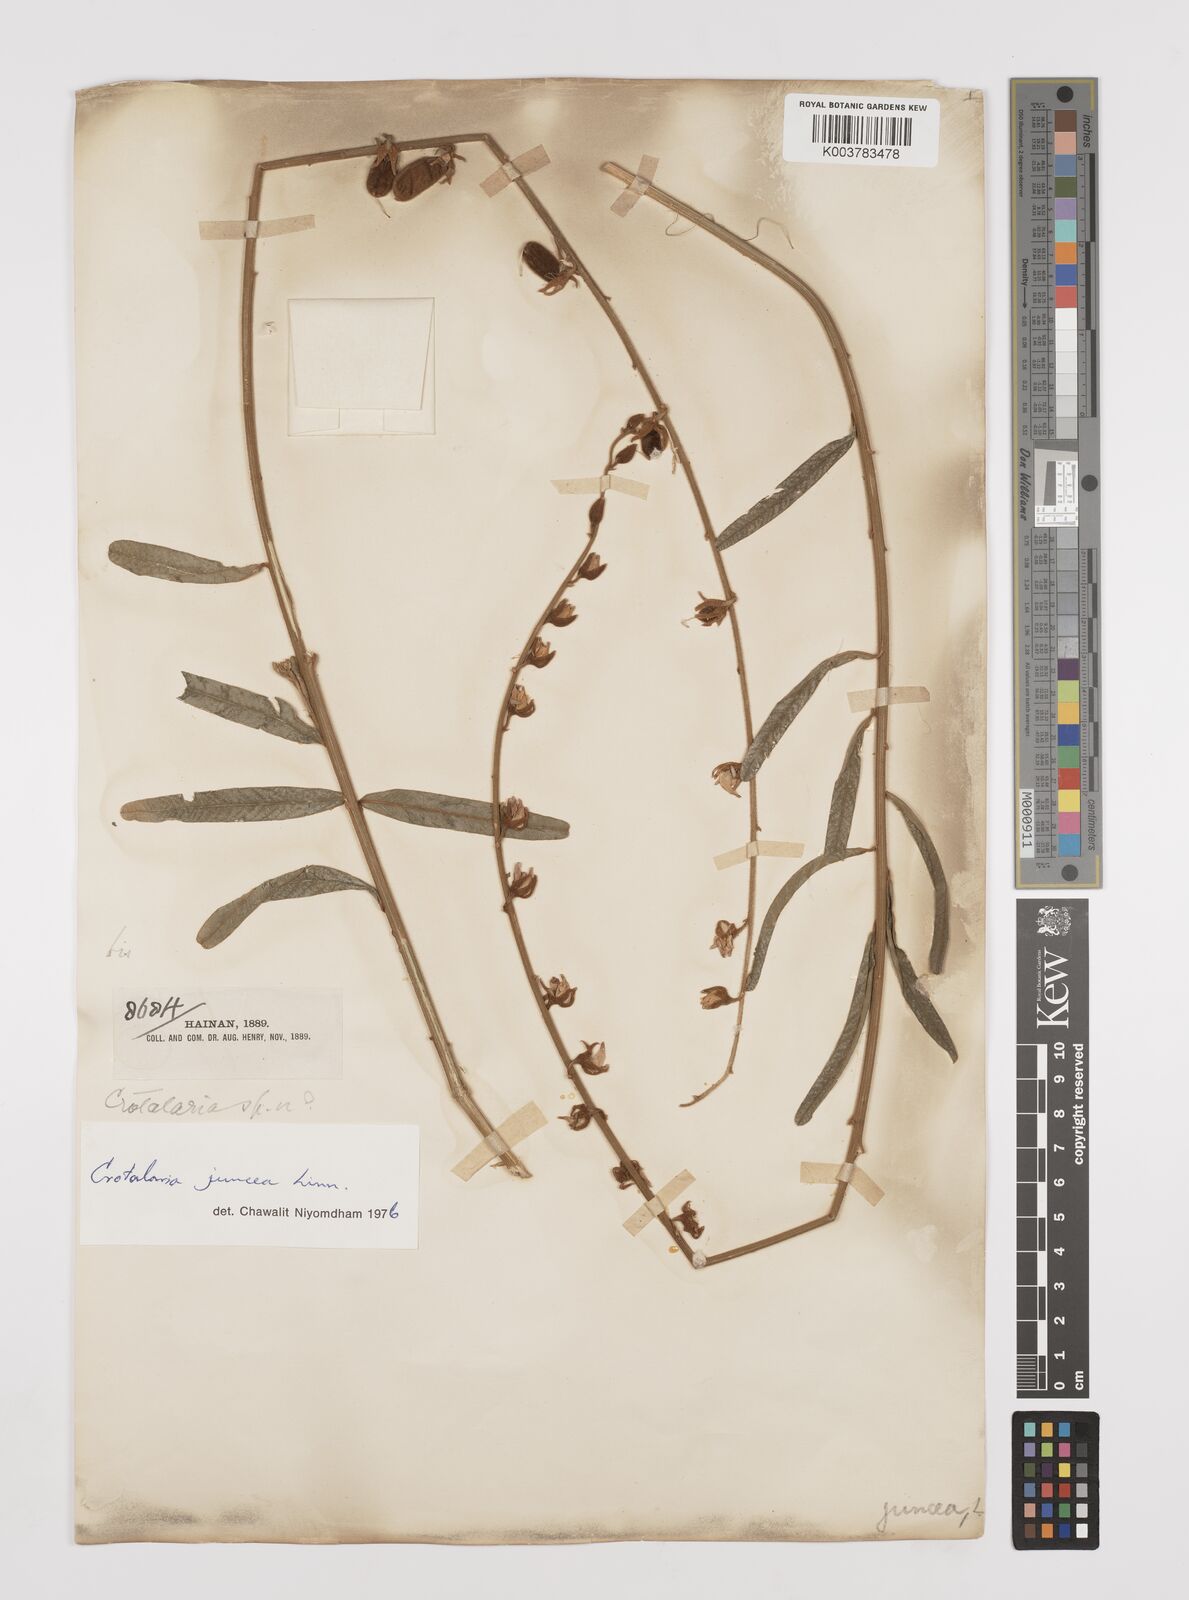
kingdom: Plantae
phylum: Tracheophyta
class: Magnoliopsida
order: Fabales
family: Fabaceae
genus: Crotalaria
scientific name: Crotalaria juncea
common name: Sunn hemp
